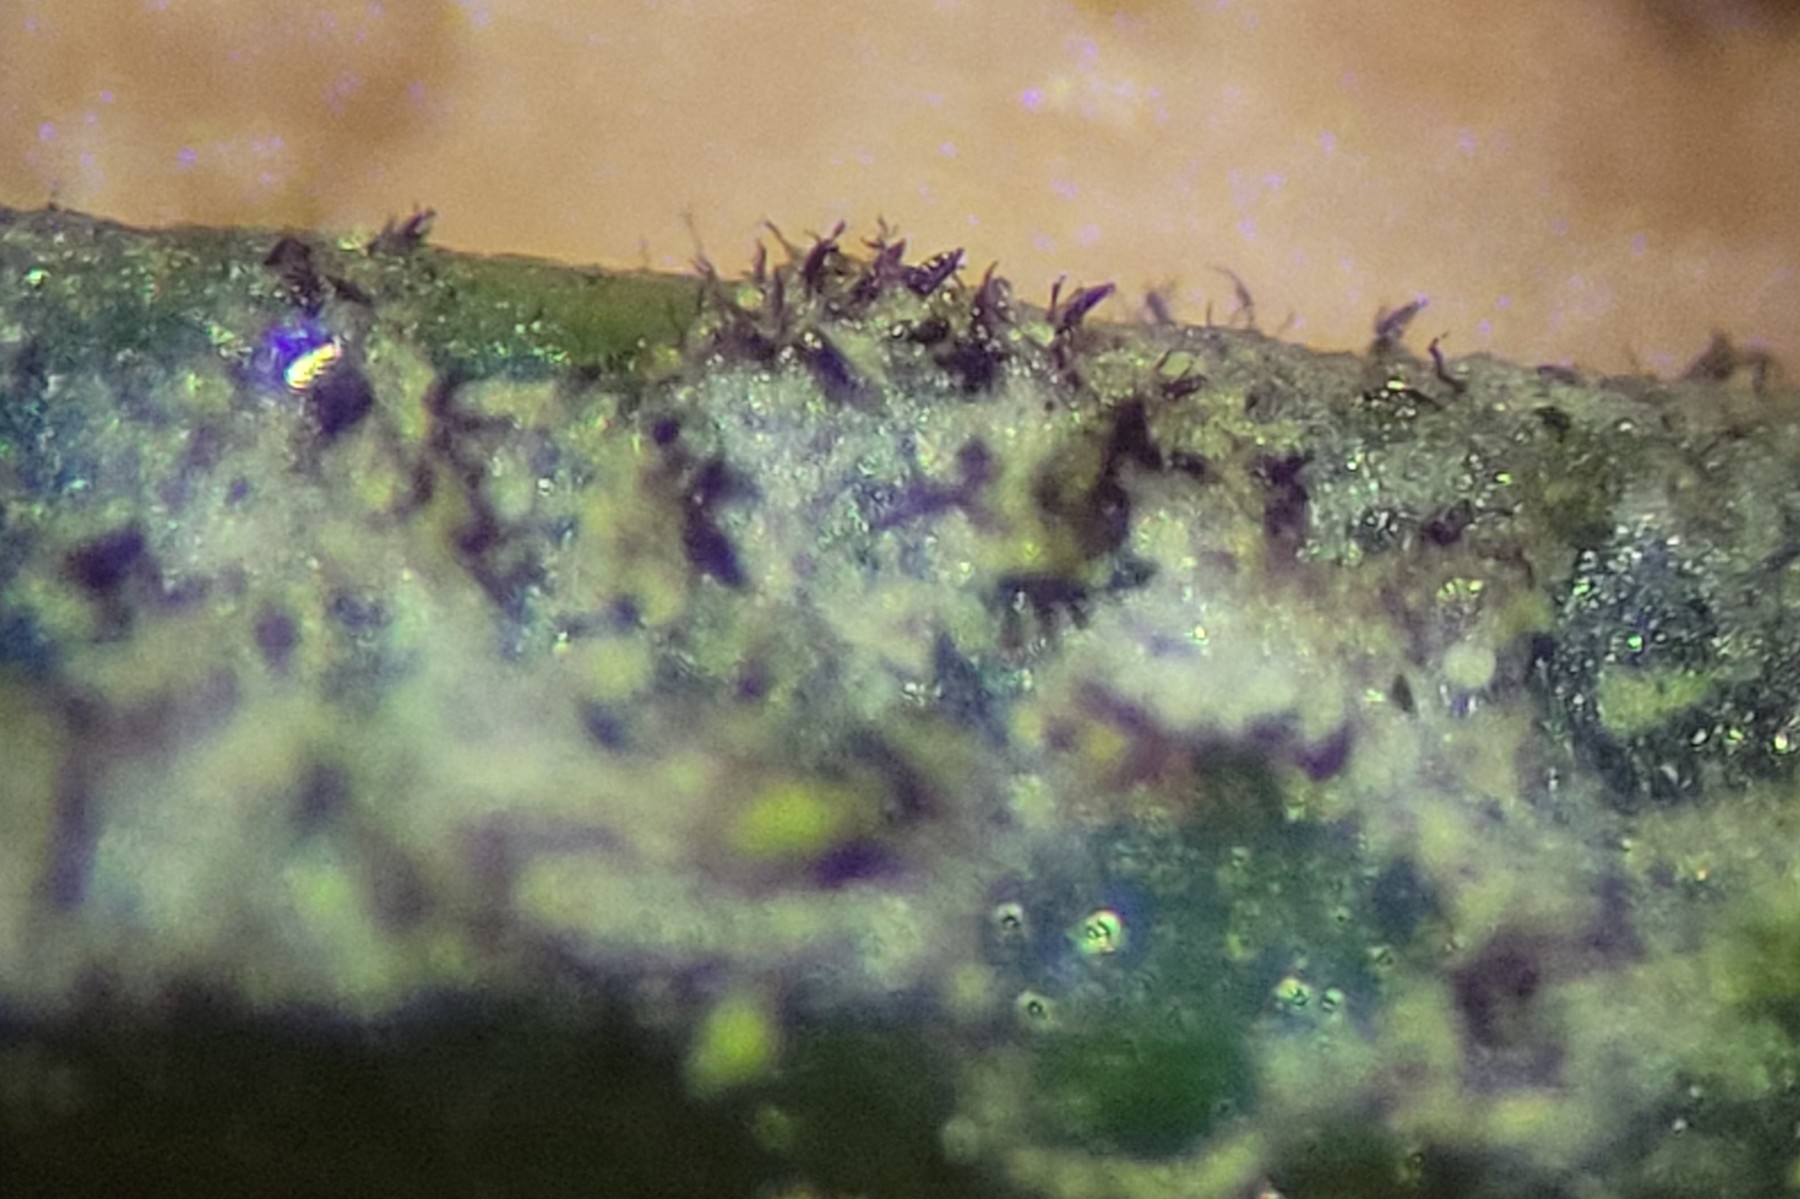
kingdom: Fungi
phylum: Ascomycota
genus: Scolecotheca
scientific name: Scolecotheca cornuta
